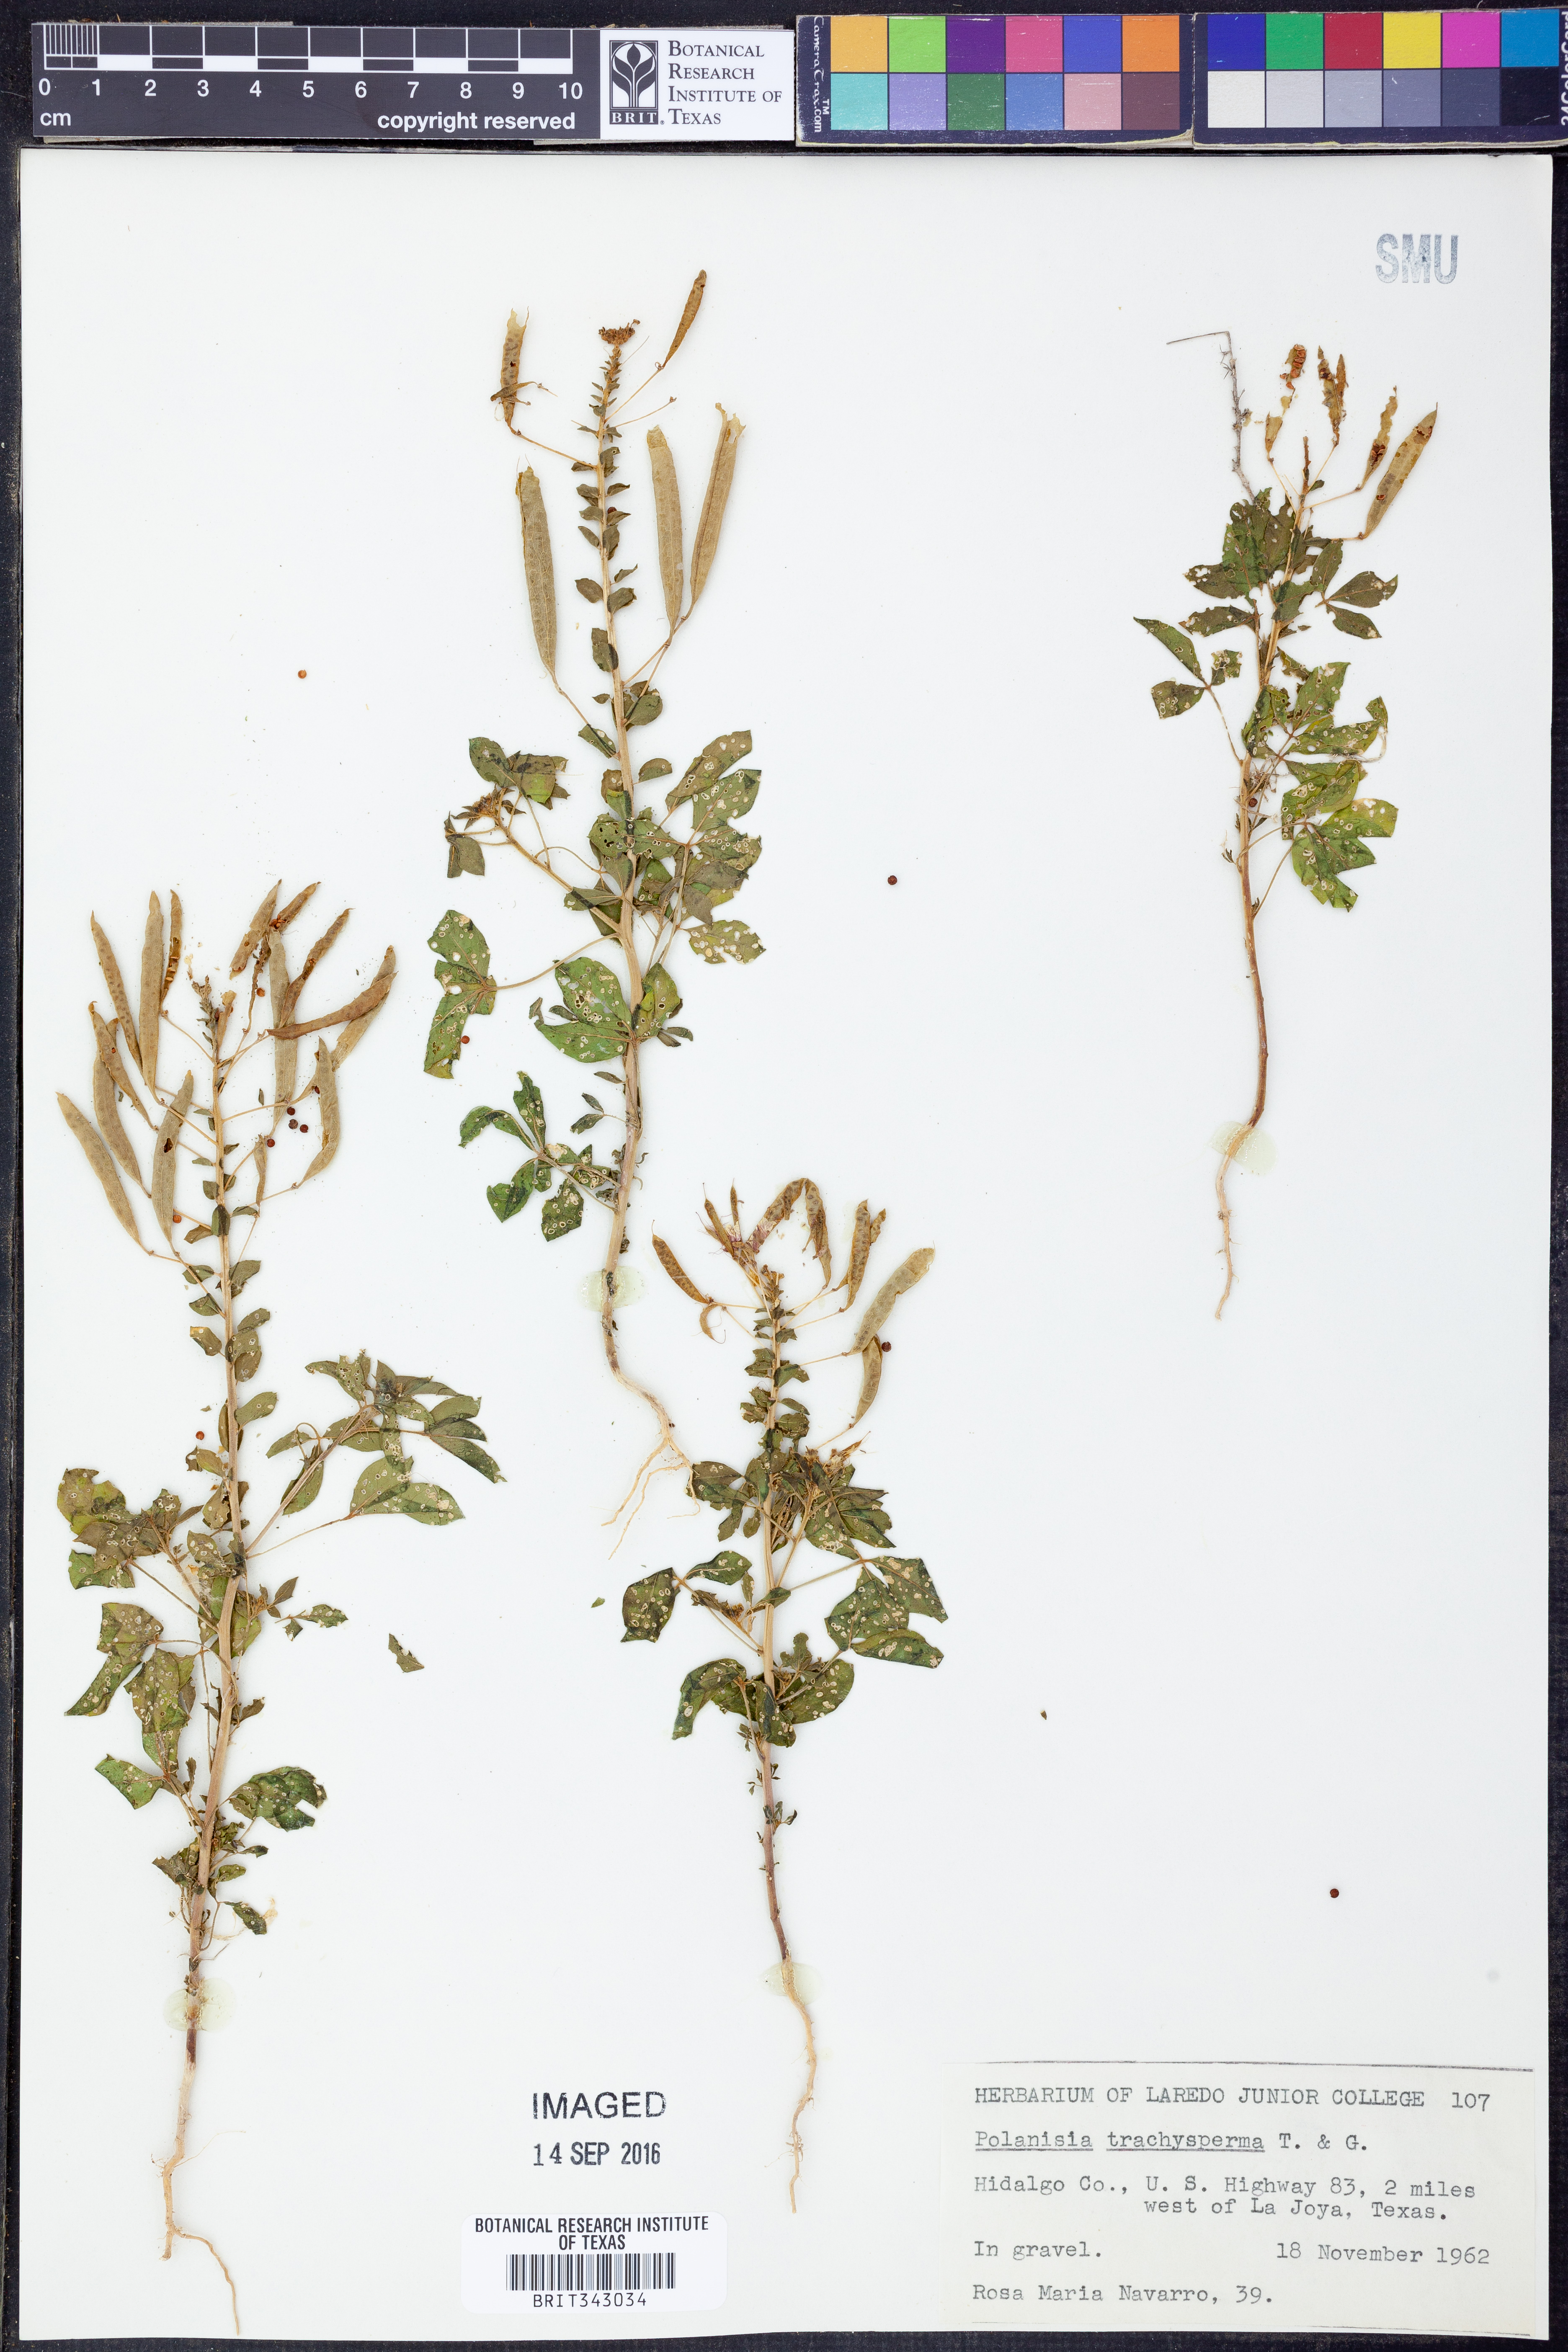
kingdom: Plantae
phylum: Tracheophyta
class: Magnoliopsida
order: Brassicales
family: Cleomaceae
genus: Polanisia
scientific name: Polanisia trachysperma
